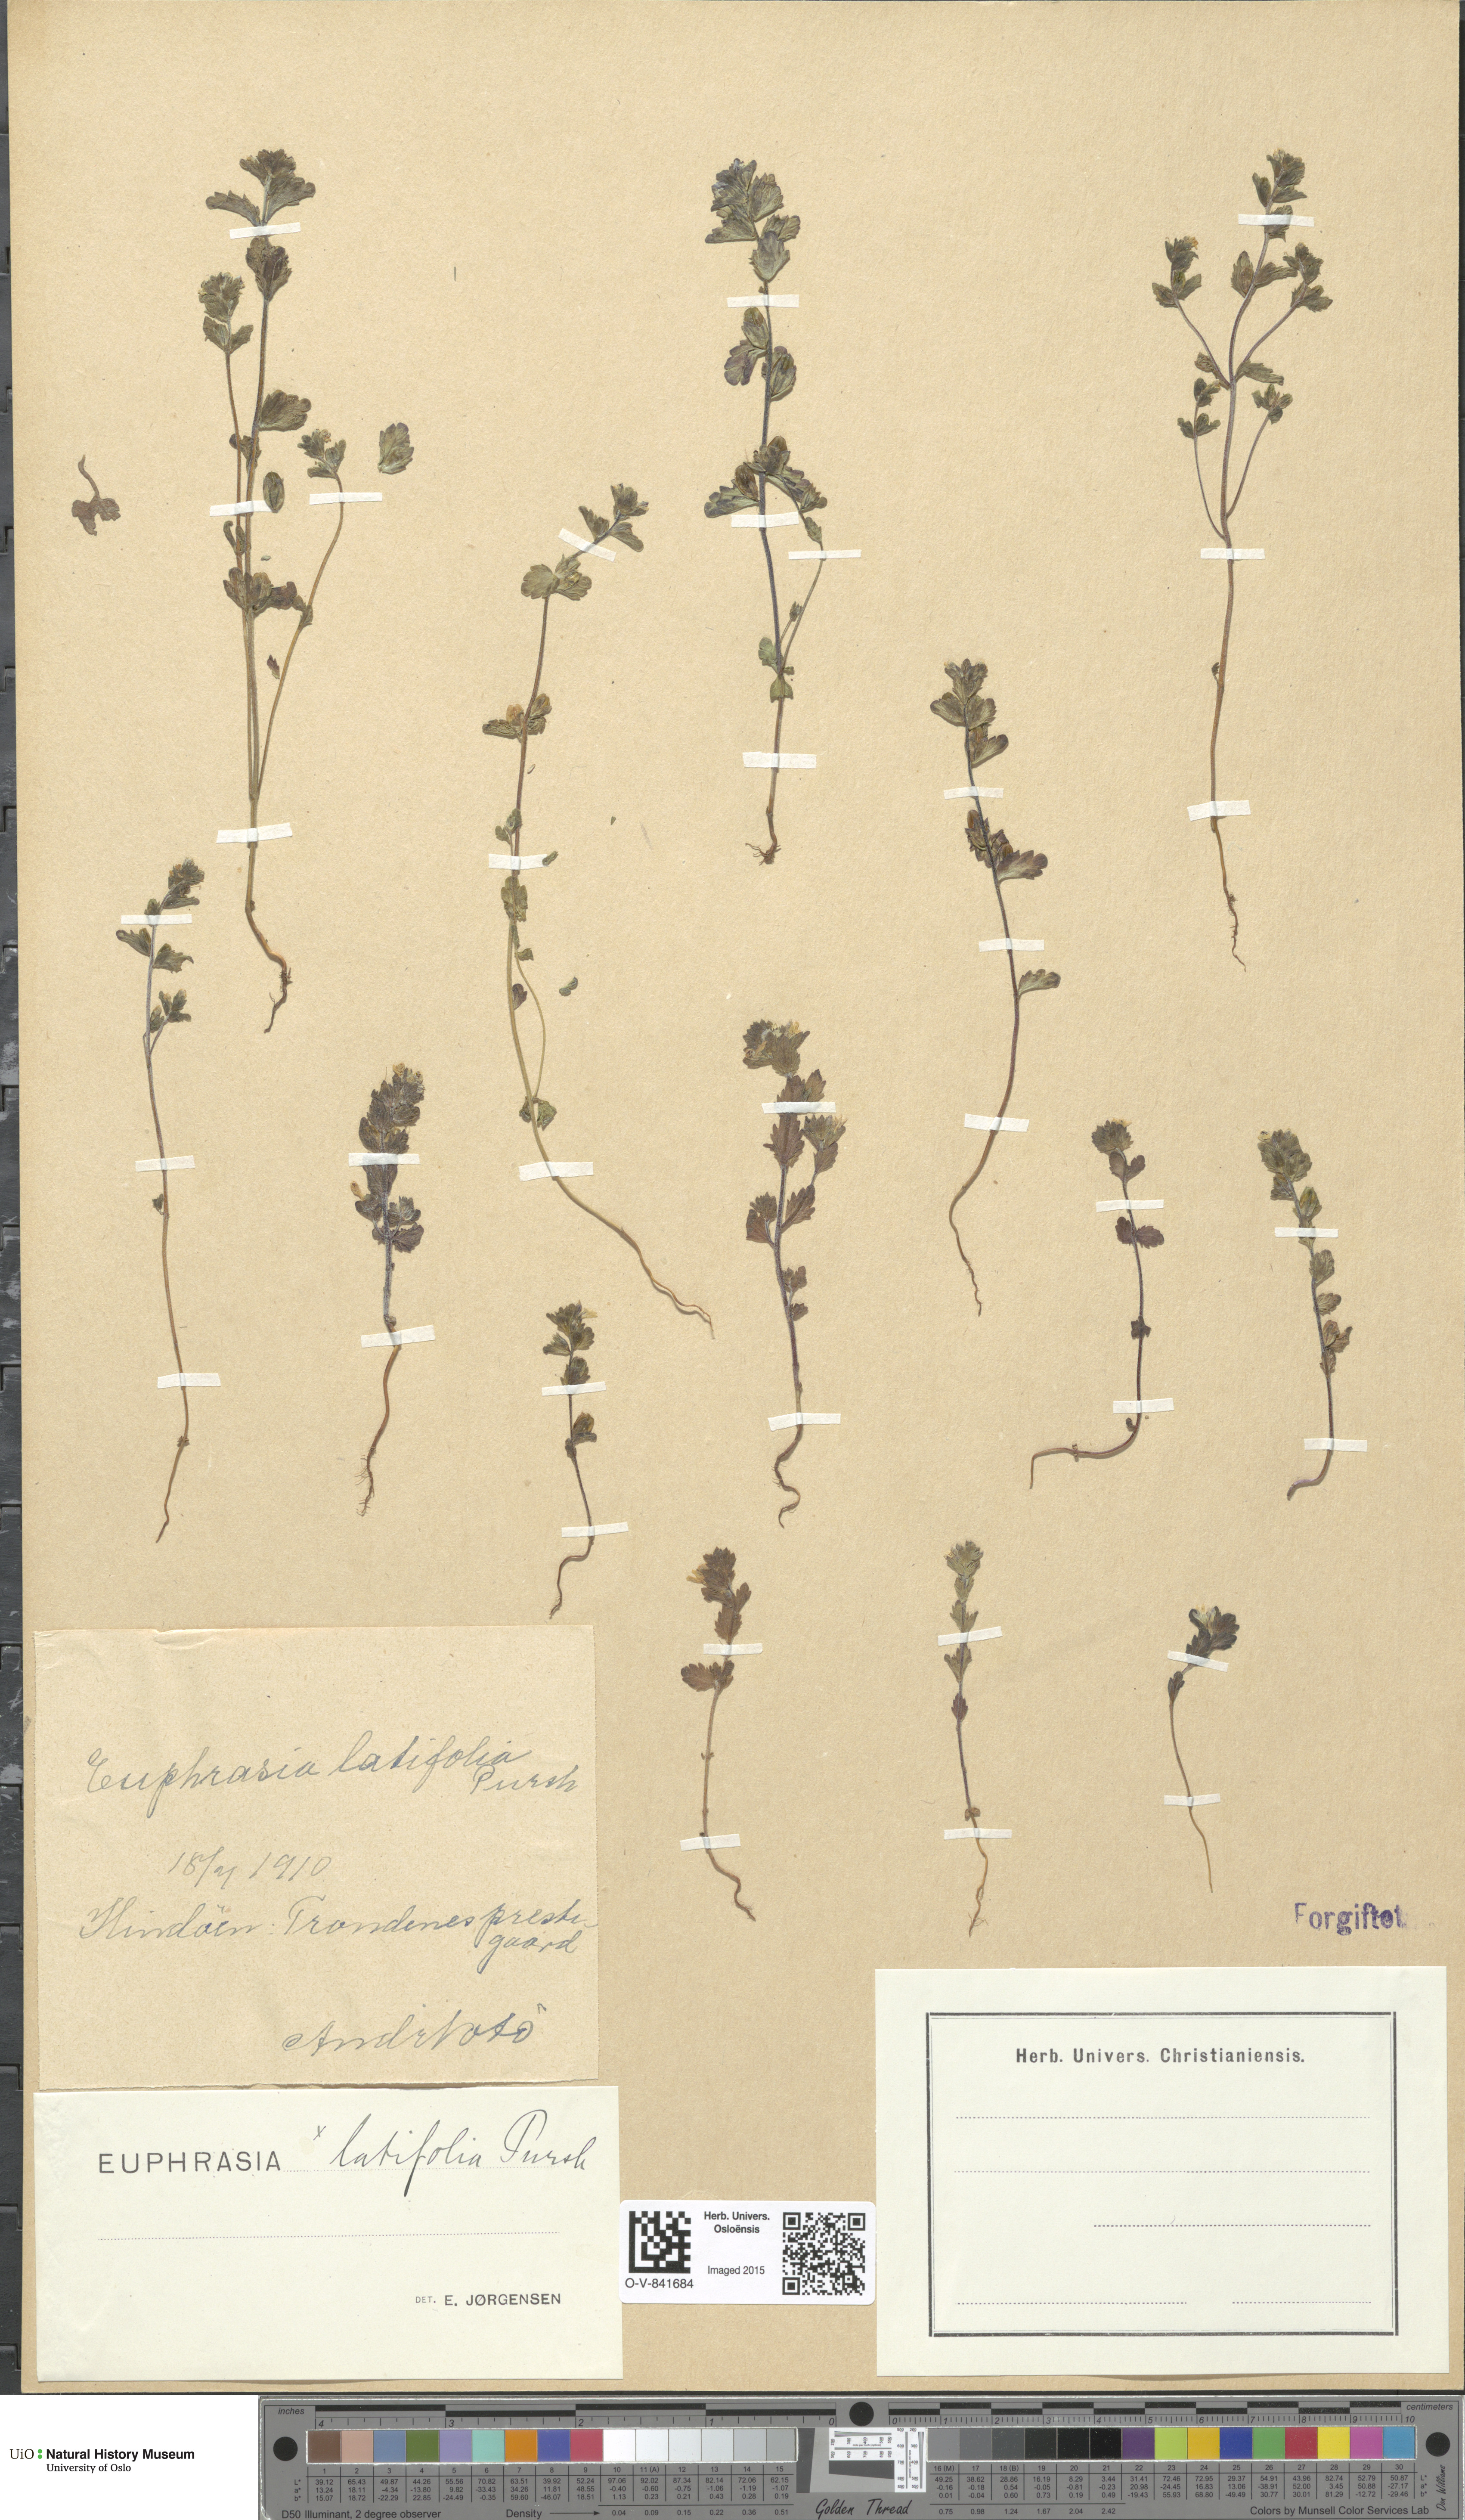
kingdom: Plantae
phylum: Tracheophyta
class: Magnoliopsida
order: Lamiales
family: Orobanchaceae
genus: Euphrasia
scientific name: Euphrasia wettsteinii
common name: Wettstein's eyebright
